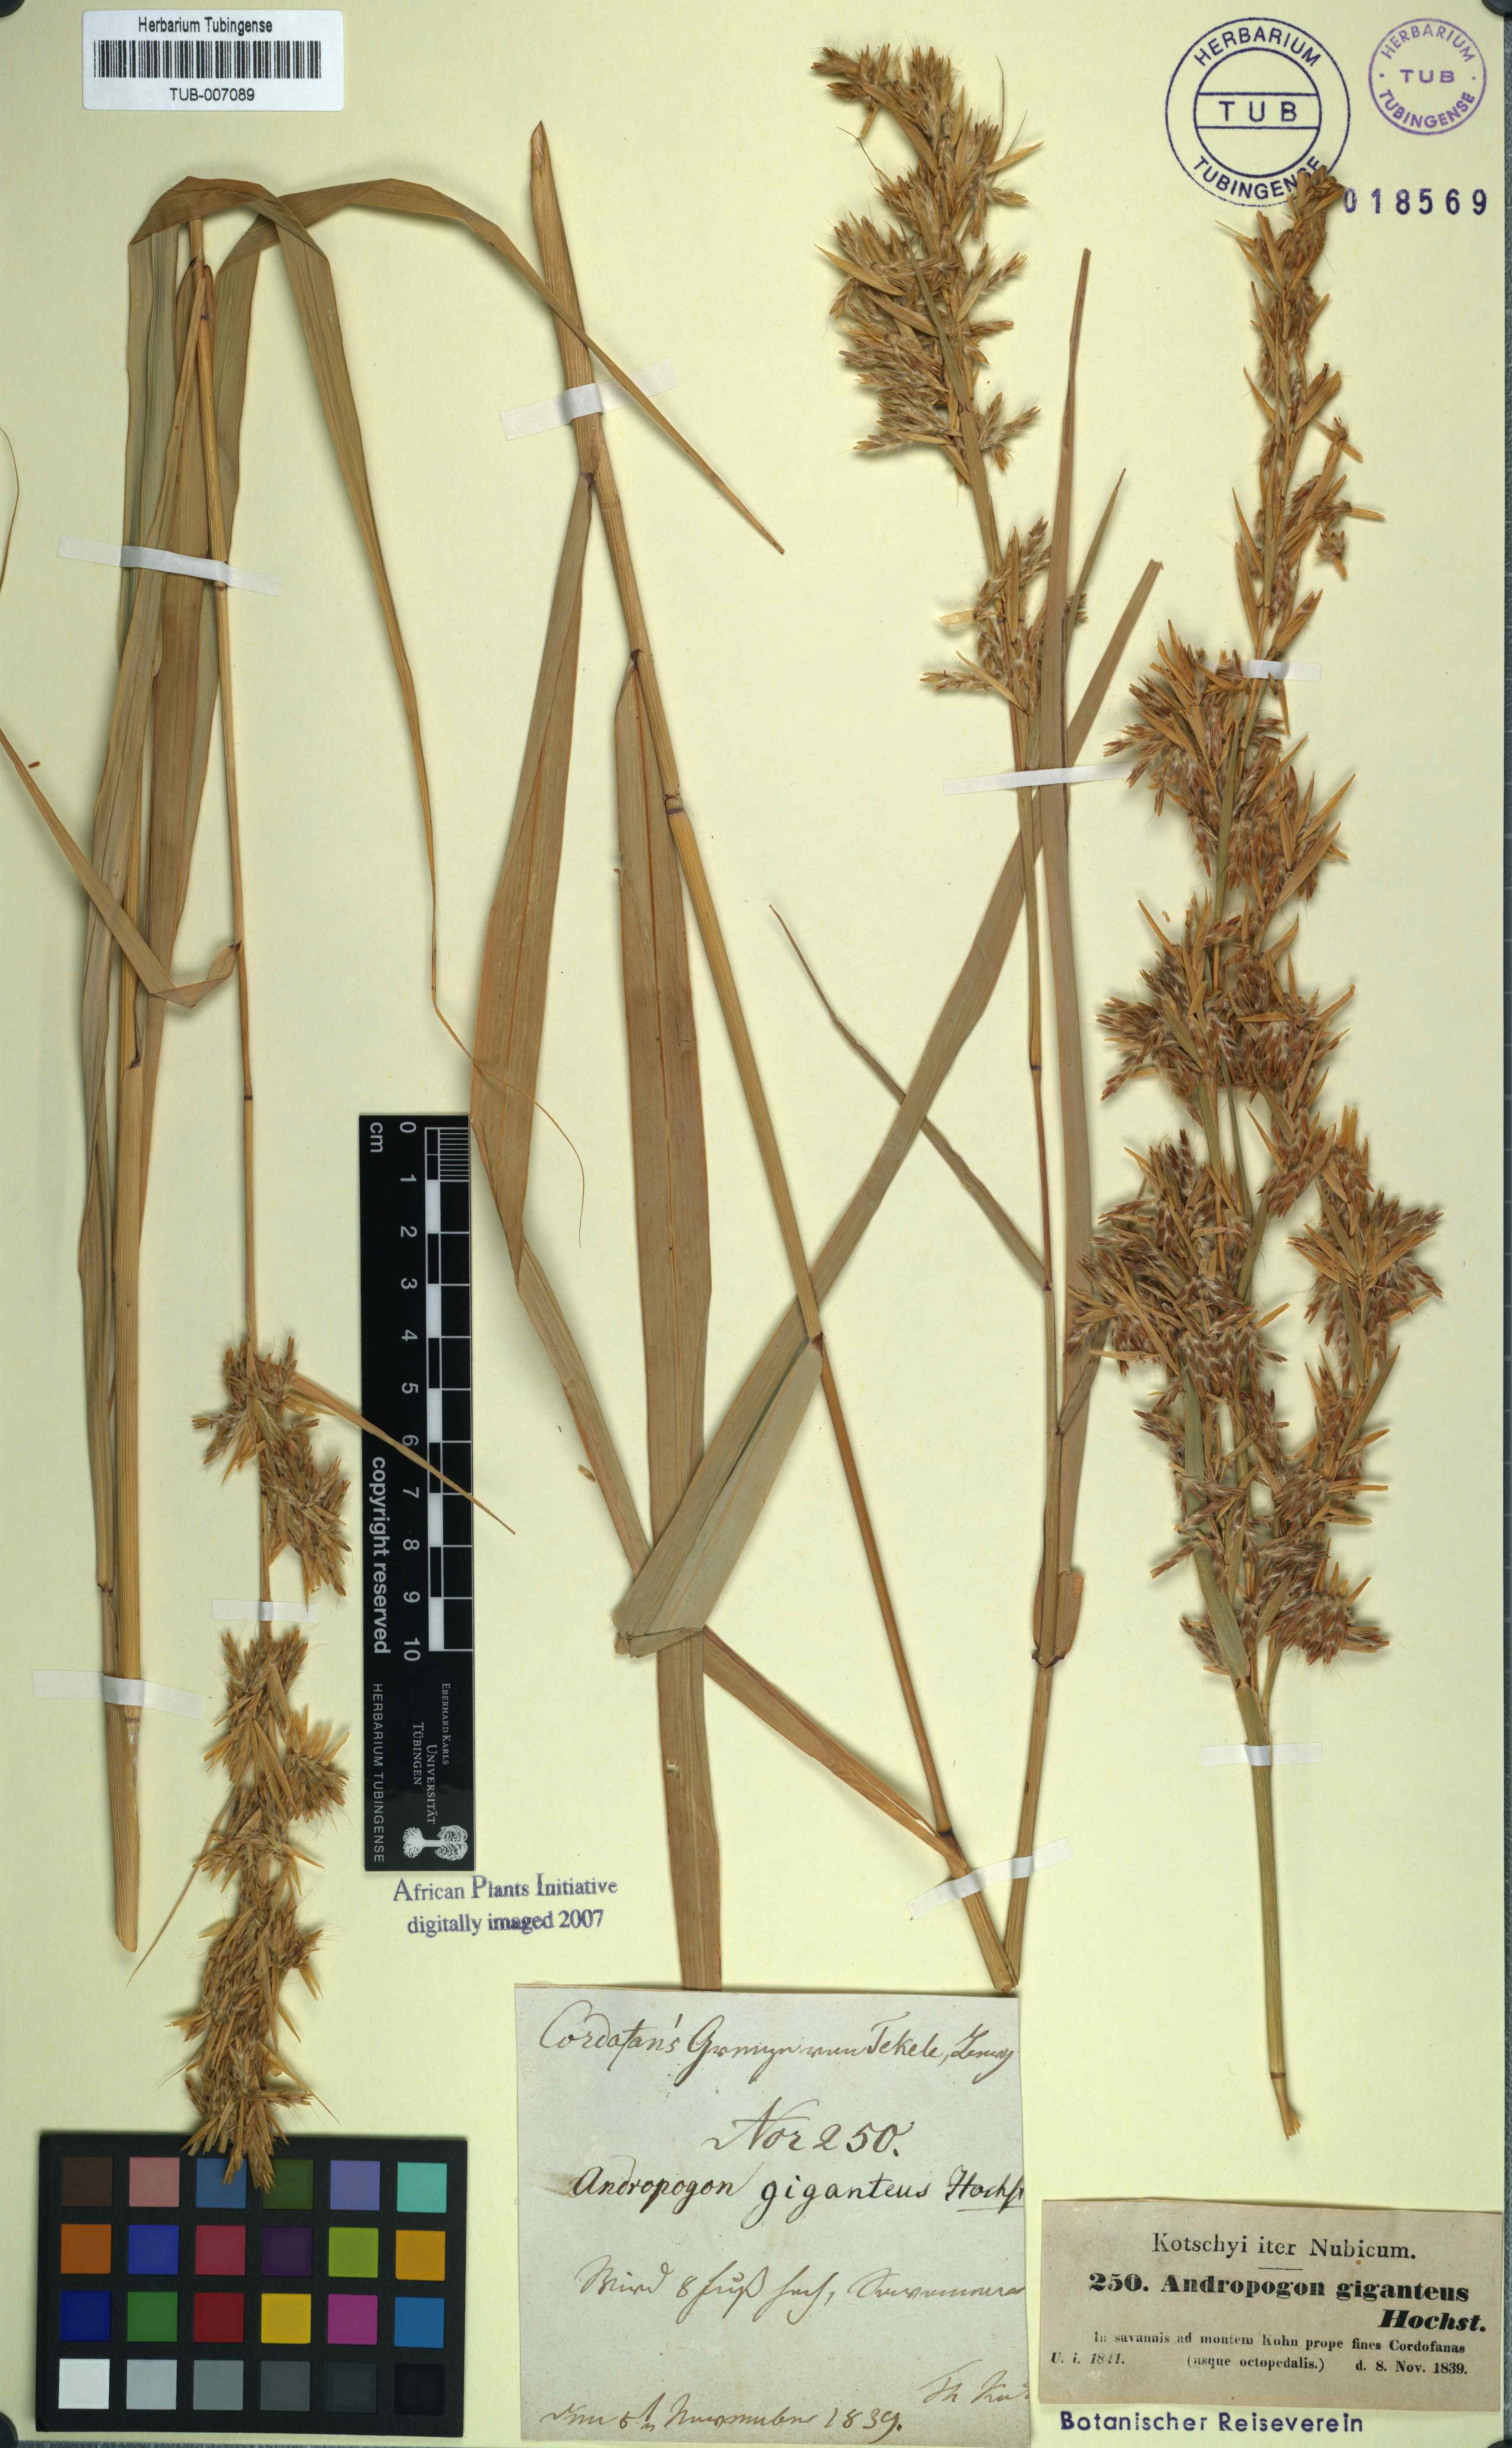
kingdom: Plantae
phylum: Tracheophyta
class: Liliopsida
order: Poales
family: Poaceae
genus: Cymbopogon
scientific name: Cymbopogon schoenanthus
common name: Geranium grass
